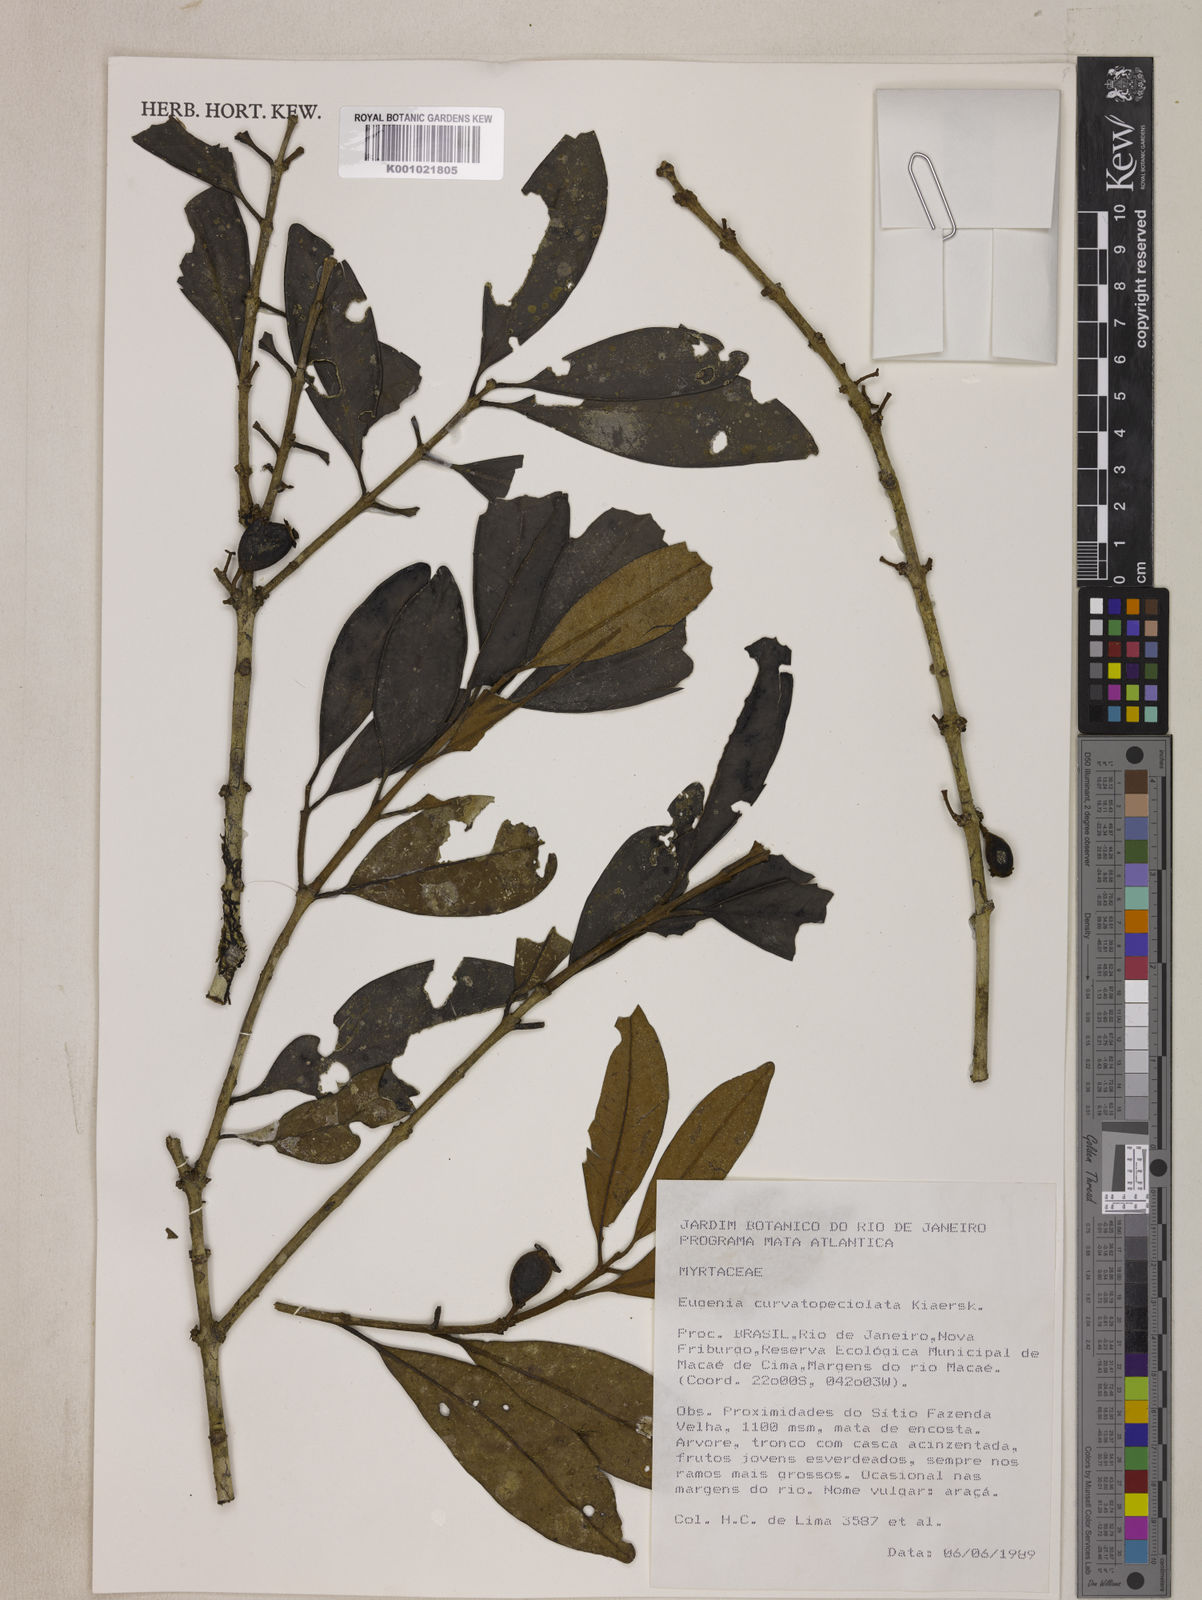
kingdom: Plantae
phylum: Tracheophyta
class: Magnoliopsida
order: Myrtales
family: Myrtaceae
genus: Eugenia
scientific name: Eugenia dodonaeifolia
